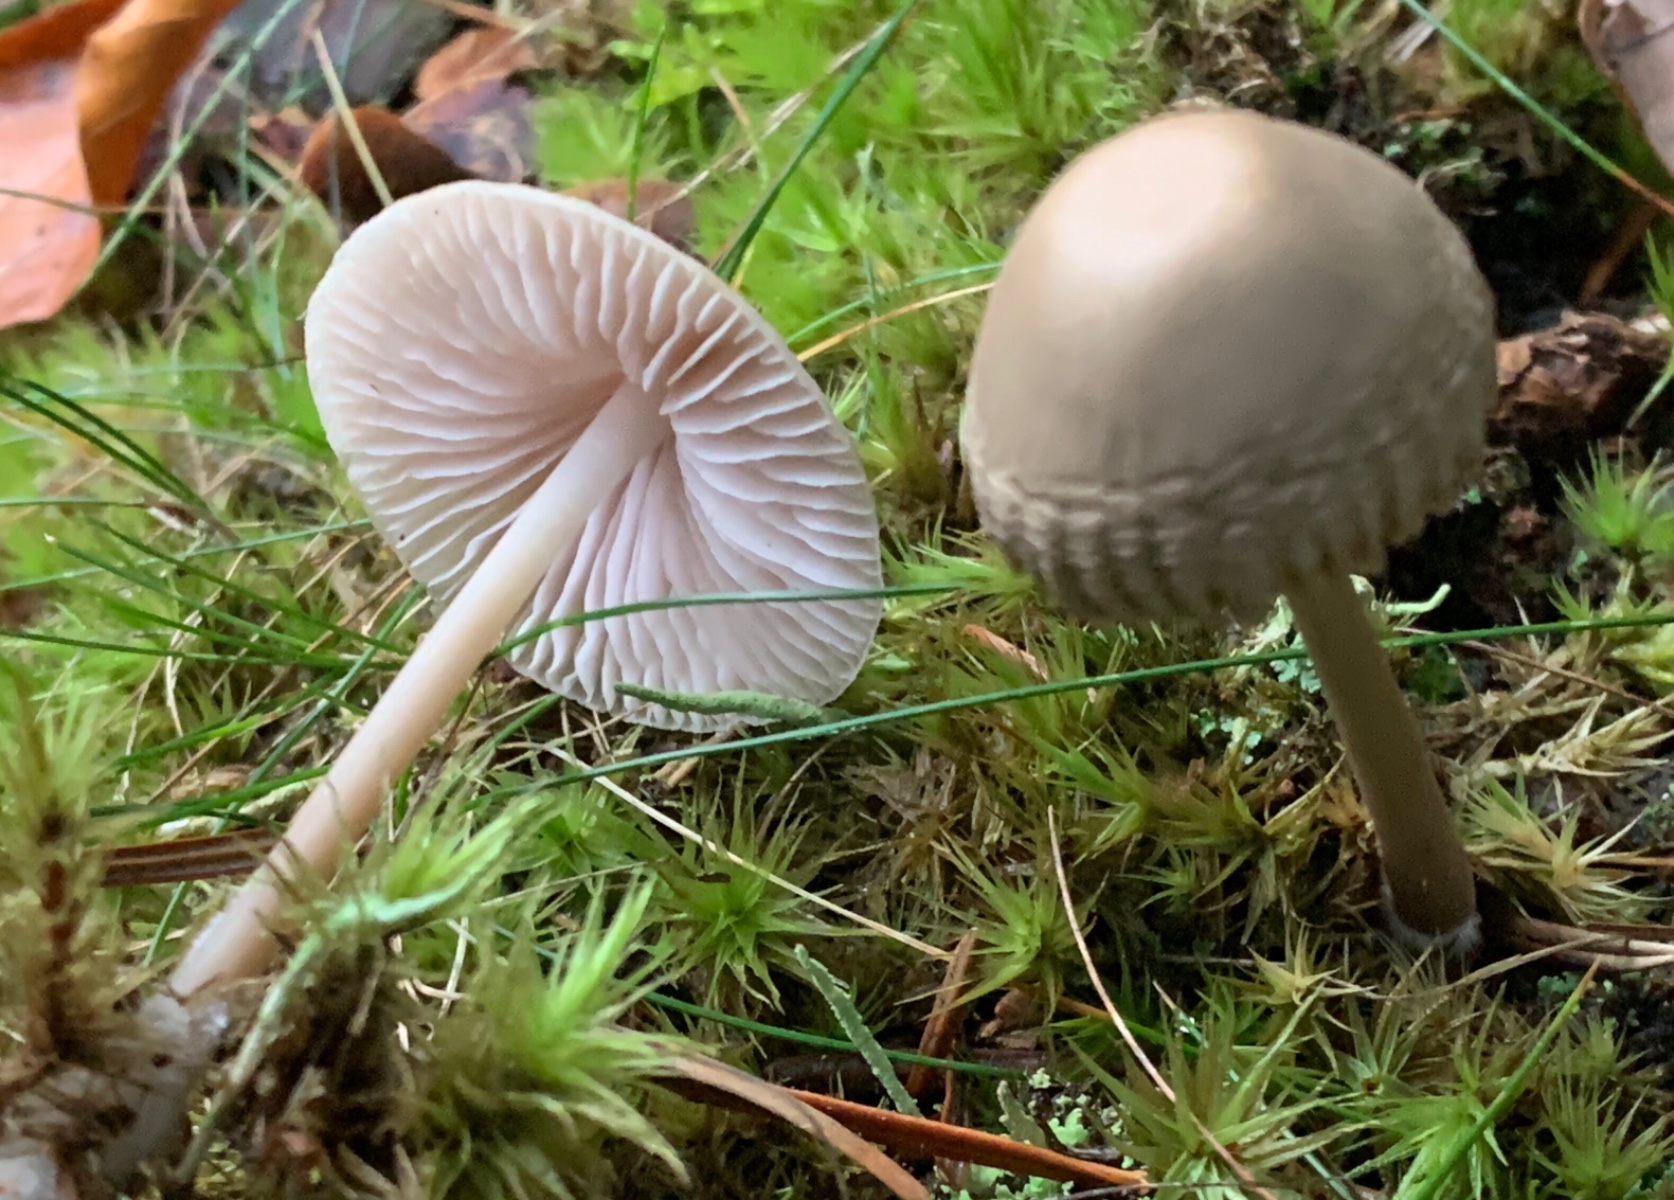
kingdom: Fungi
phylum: Basidiomycota
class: Agaricomycetes
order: Agaricales
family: Mycenaceae
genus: Mycena
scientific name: Mycena galericulata
